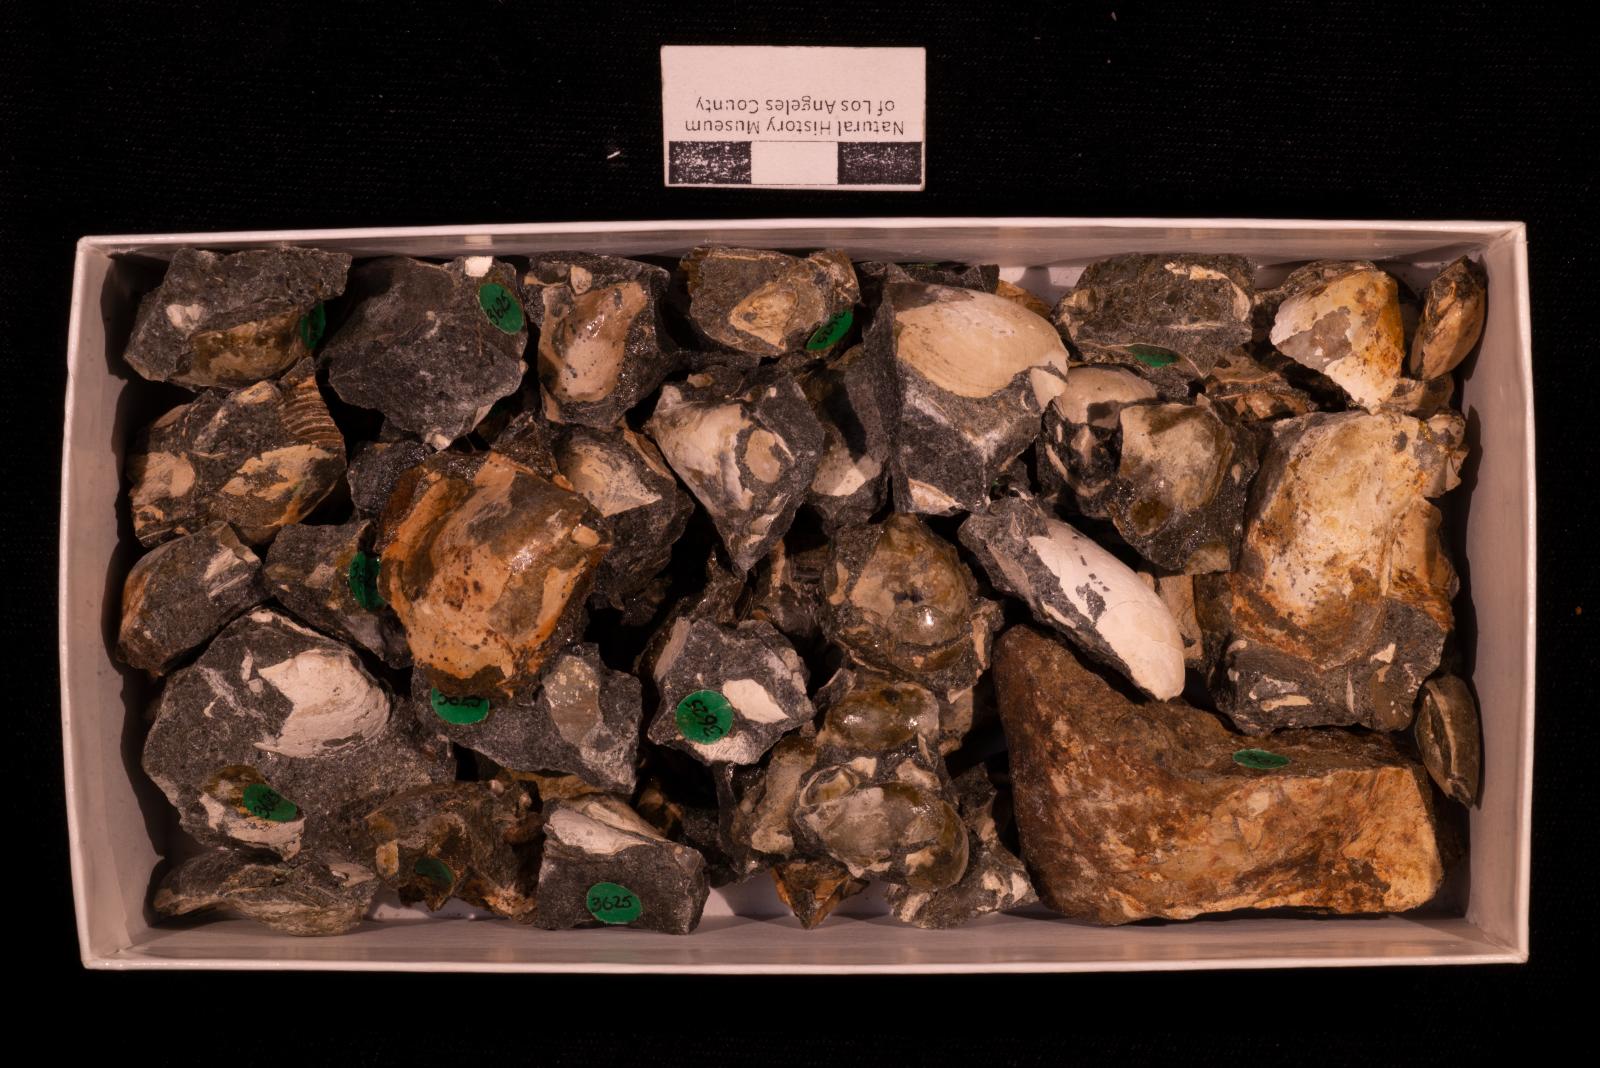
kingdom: Animalia
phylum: Mollusca
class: Bivalvia
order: Ostreida
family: Pteriidae
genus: Pteria
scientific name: Pteria pellucida
